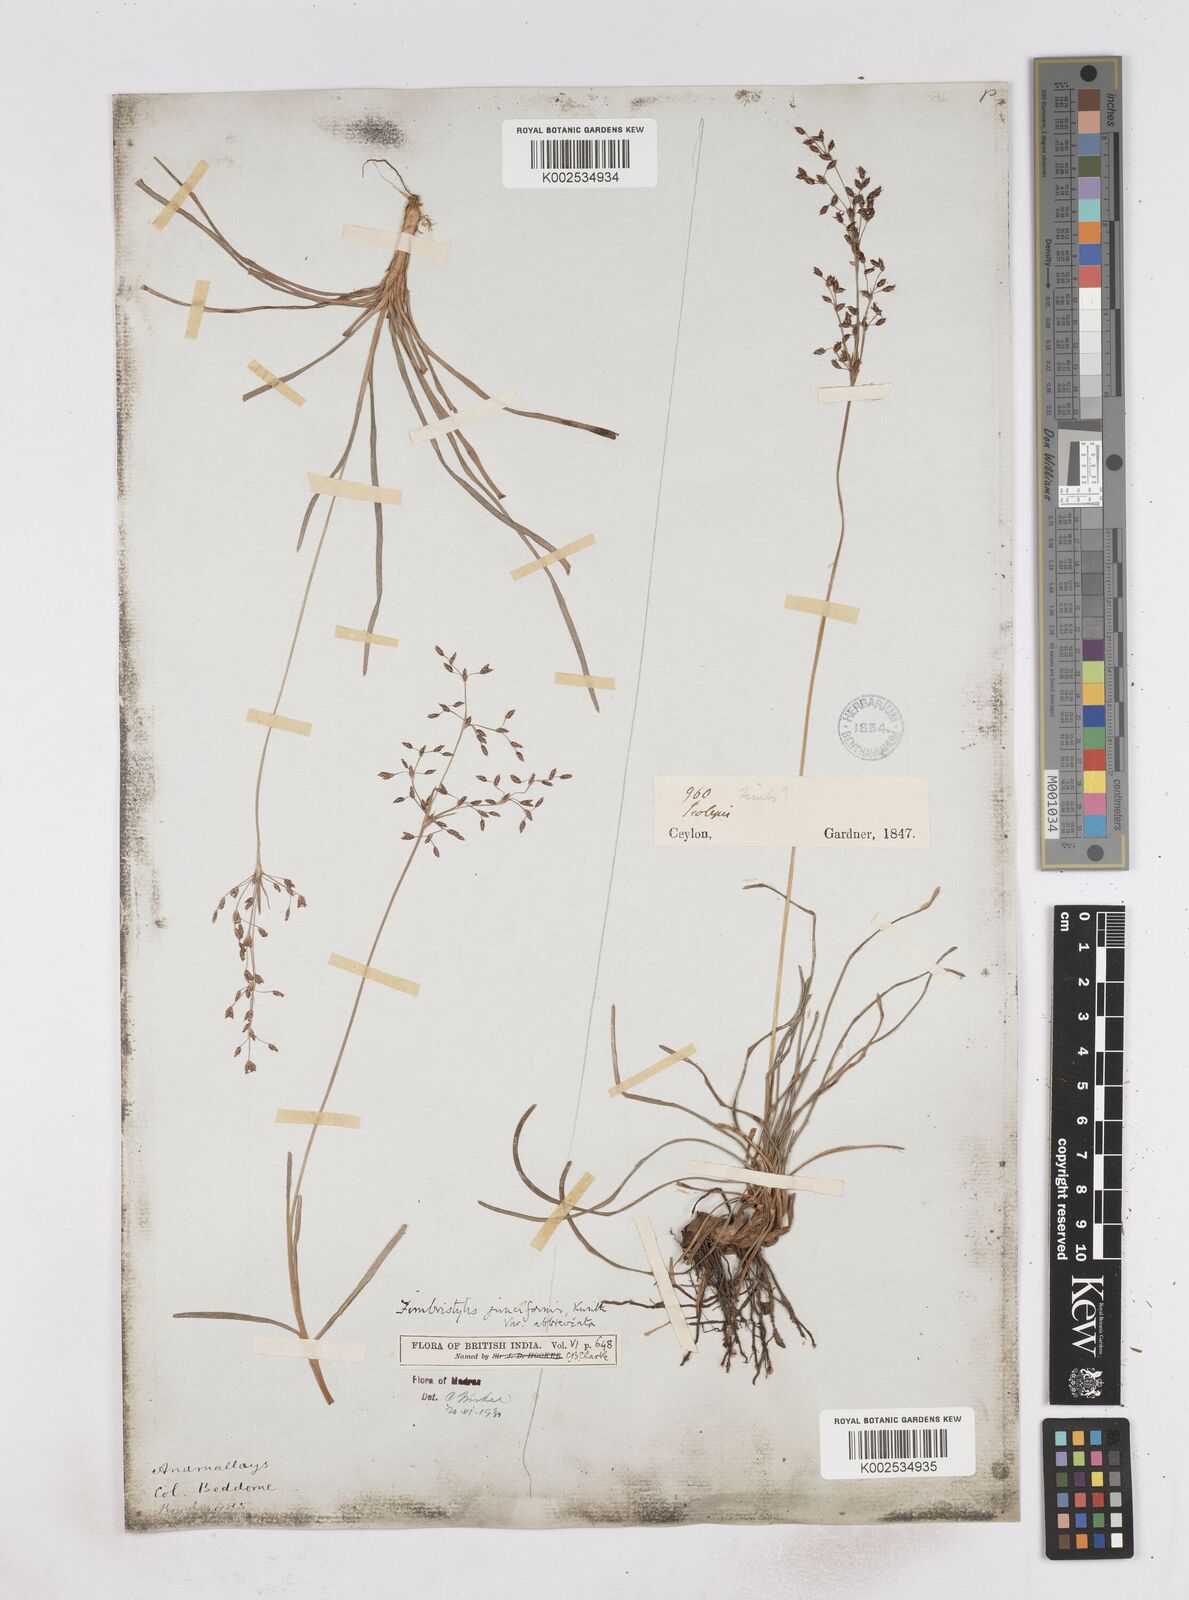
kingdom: Plantae
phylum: Tracheophyta
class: Liliopsida
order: Poales
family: Cyperaceae
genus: Fimbristylis
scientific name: Fimbristylis falcata
